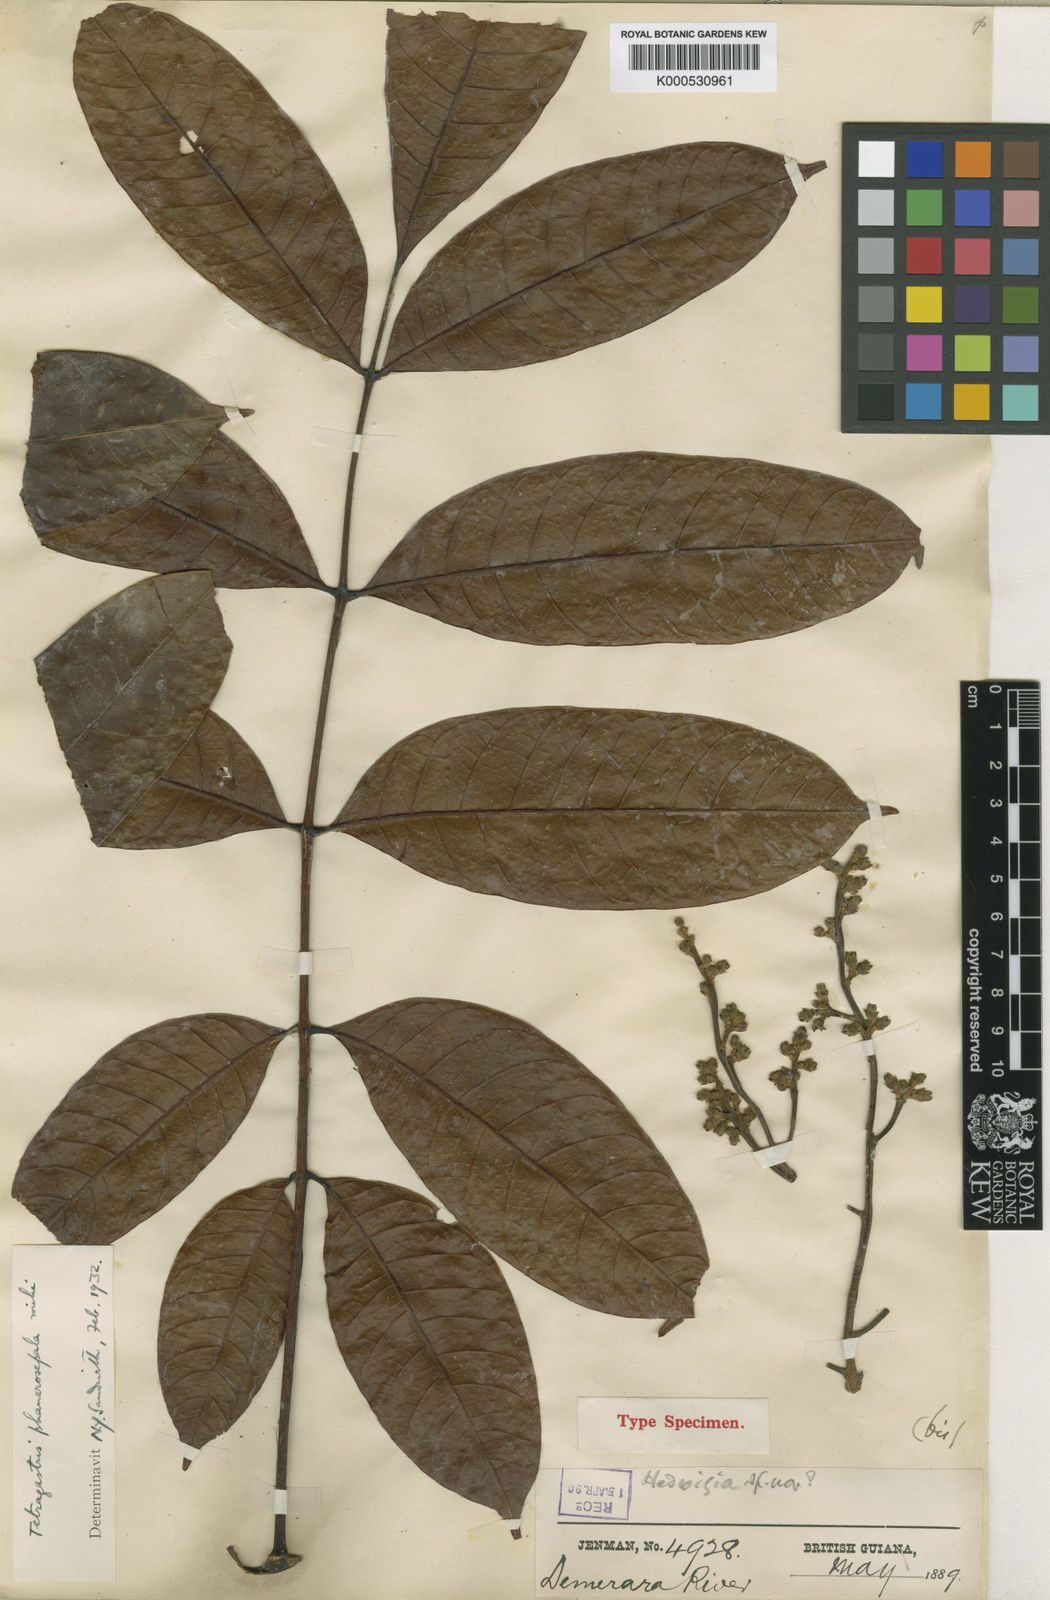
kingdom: Plantae
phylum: Tracheophyta
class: Magnoliopsida
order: Sapindales
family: Burseraceae
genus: Tetragastris
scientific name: Tetragastris altissima
